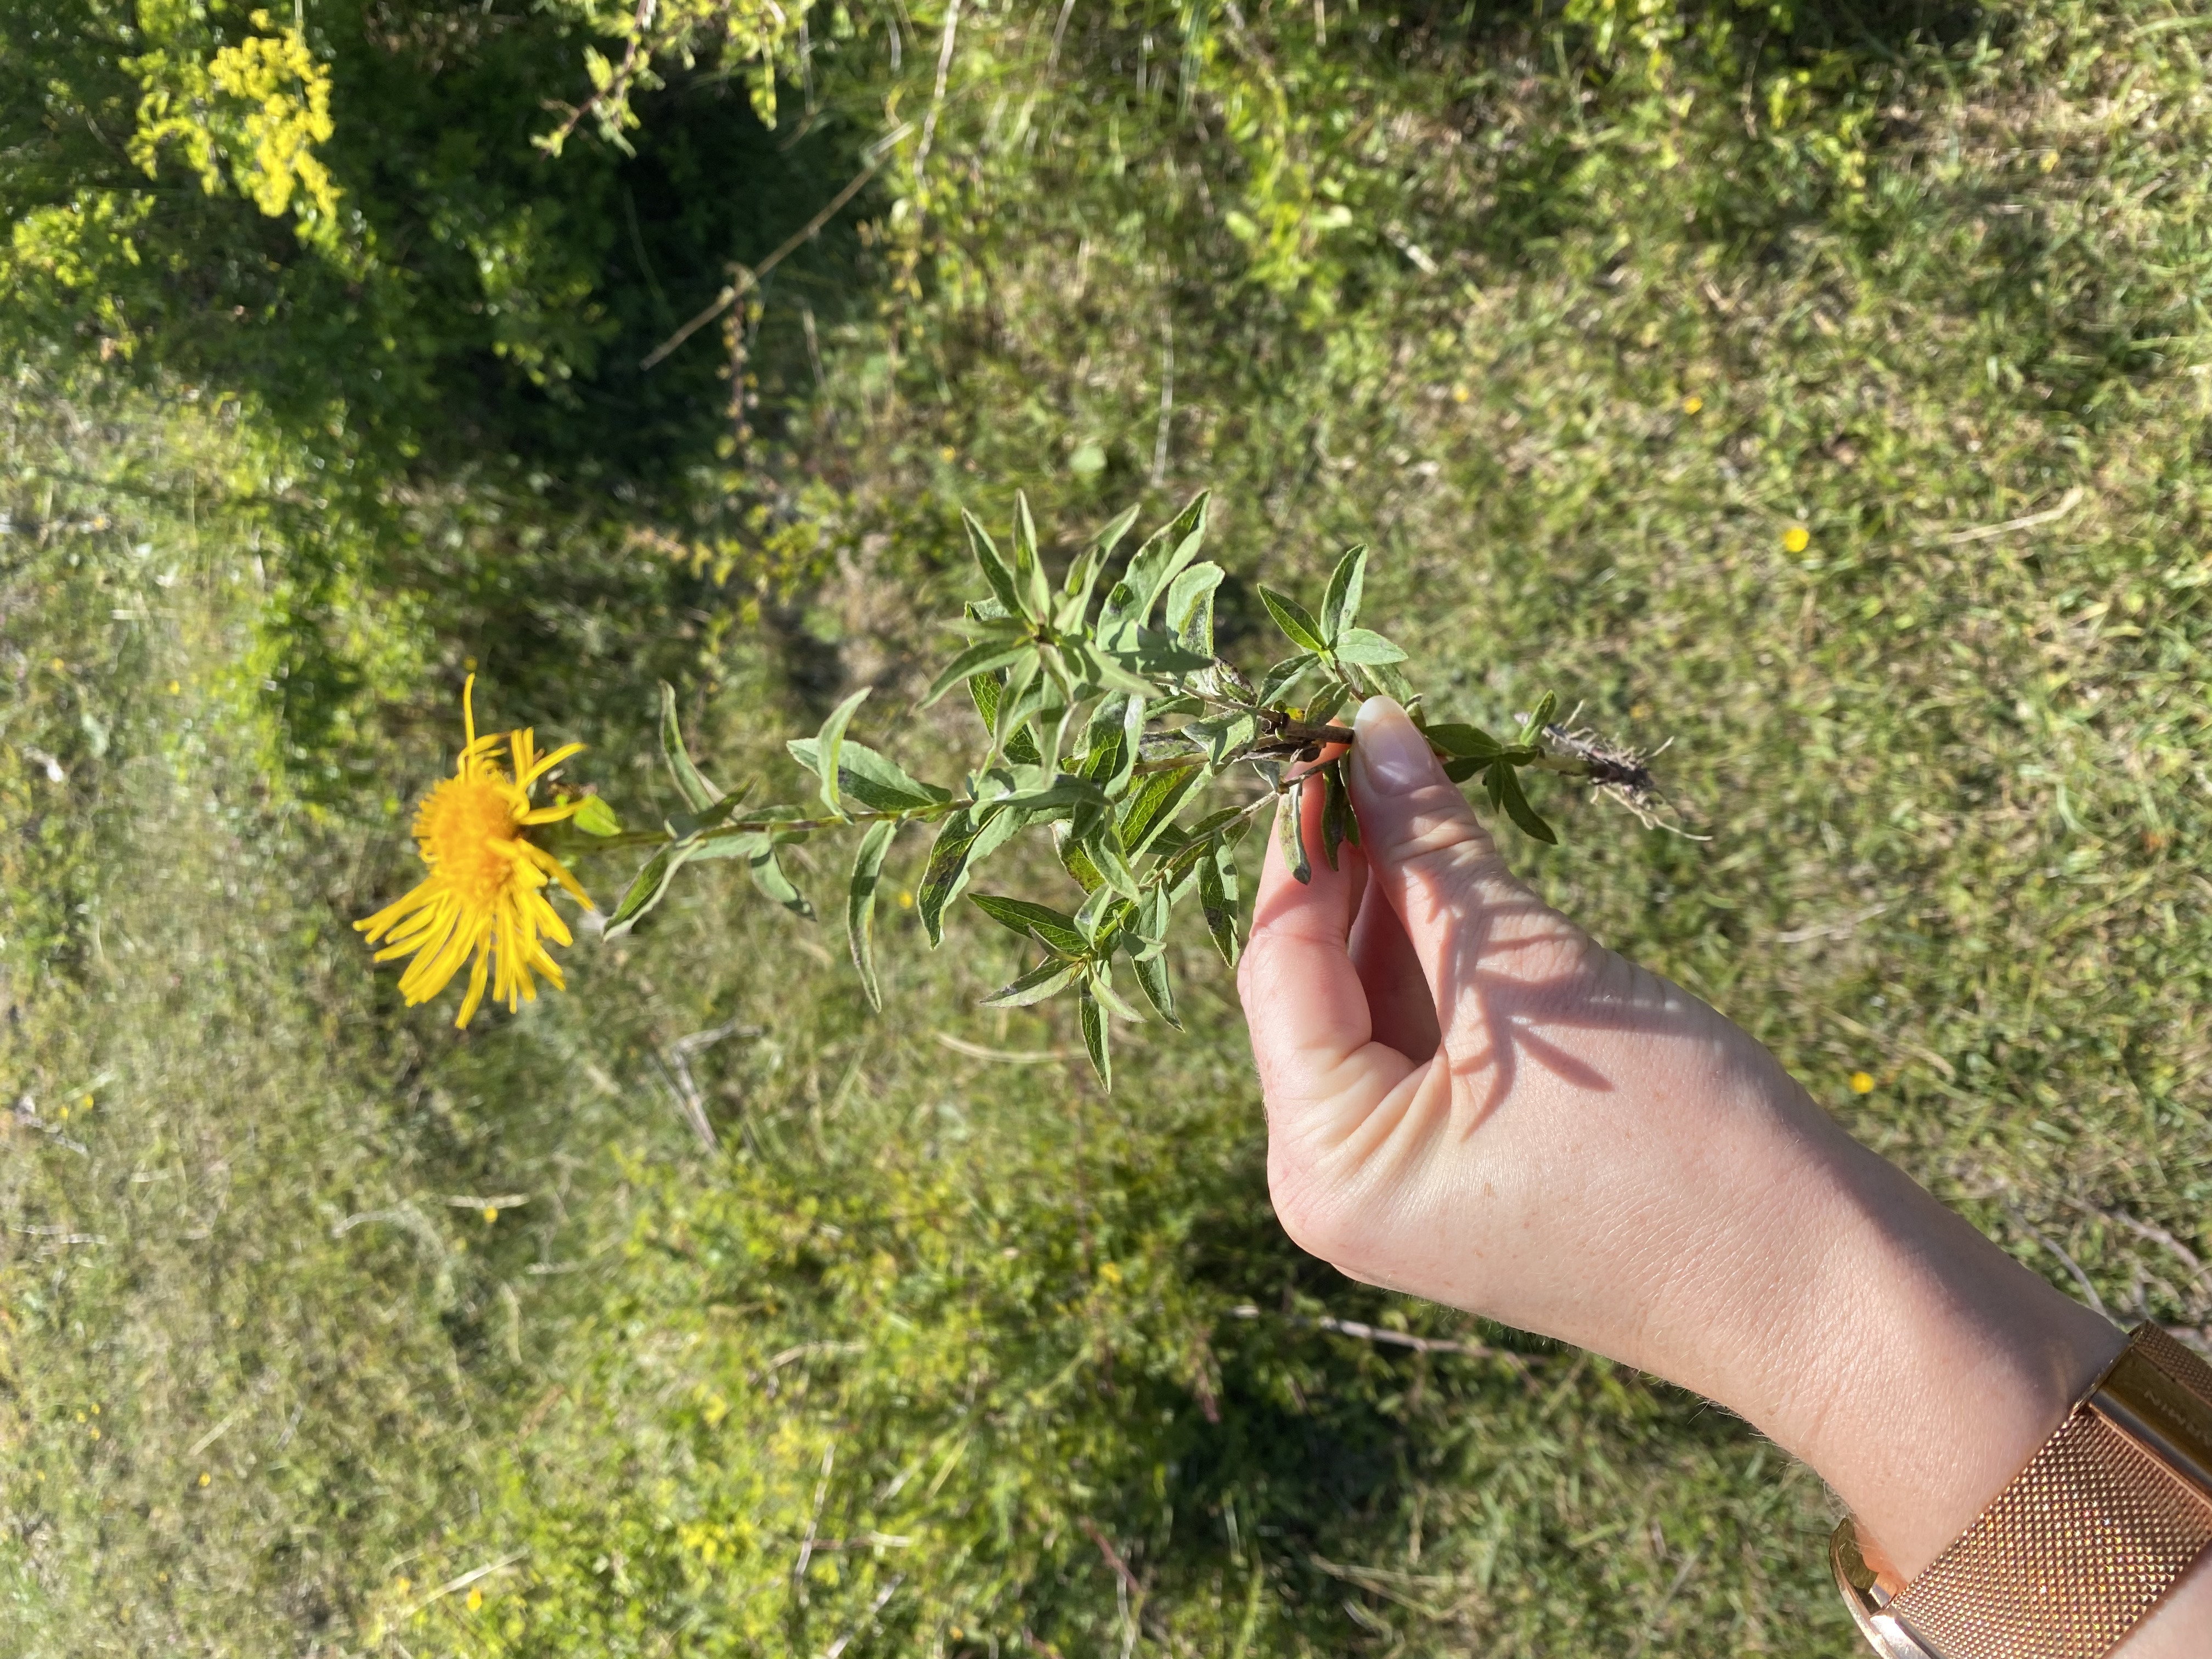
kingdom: Plantae
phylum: Tracheophyta
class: Magnoliopsida
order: Asterales
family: Asteraceae
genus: Pentanema
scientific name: Pentanema salicinum
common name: Pile-alant
